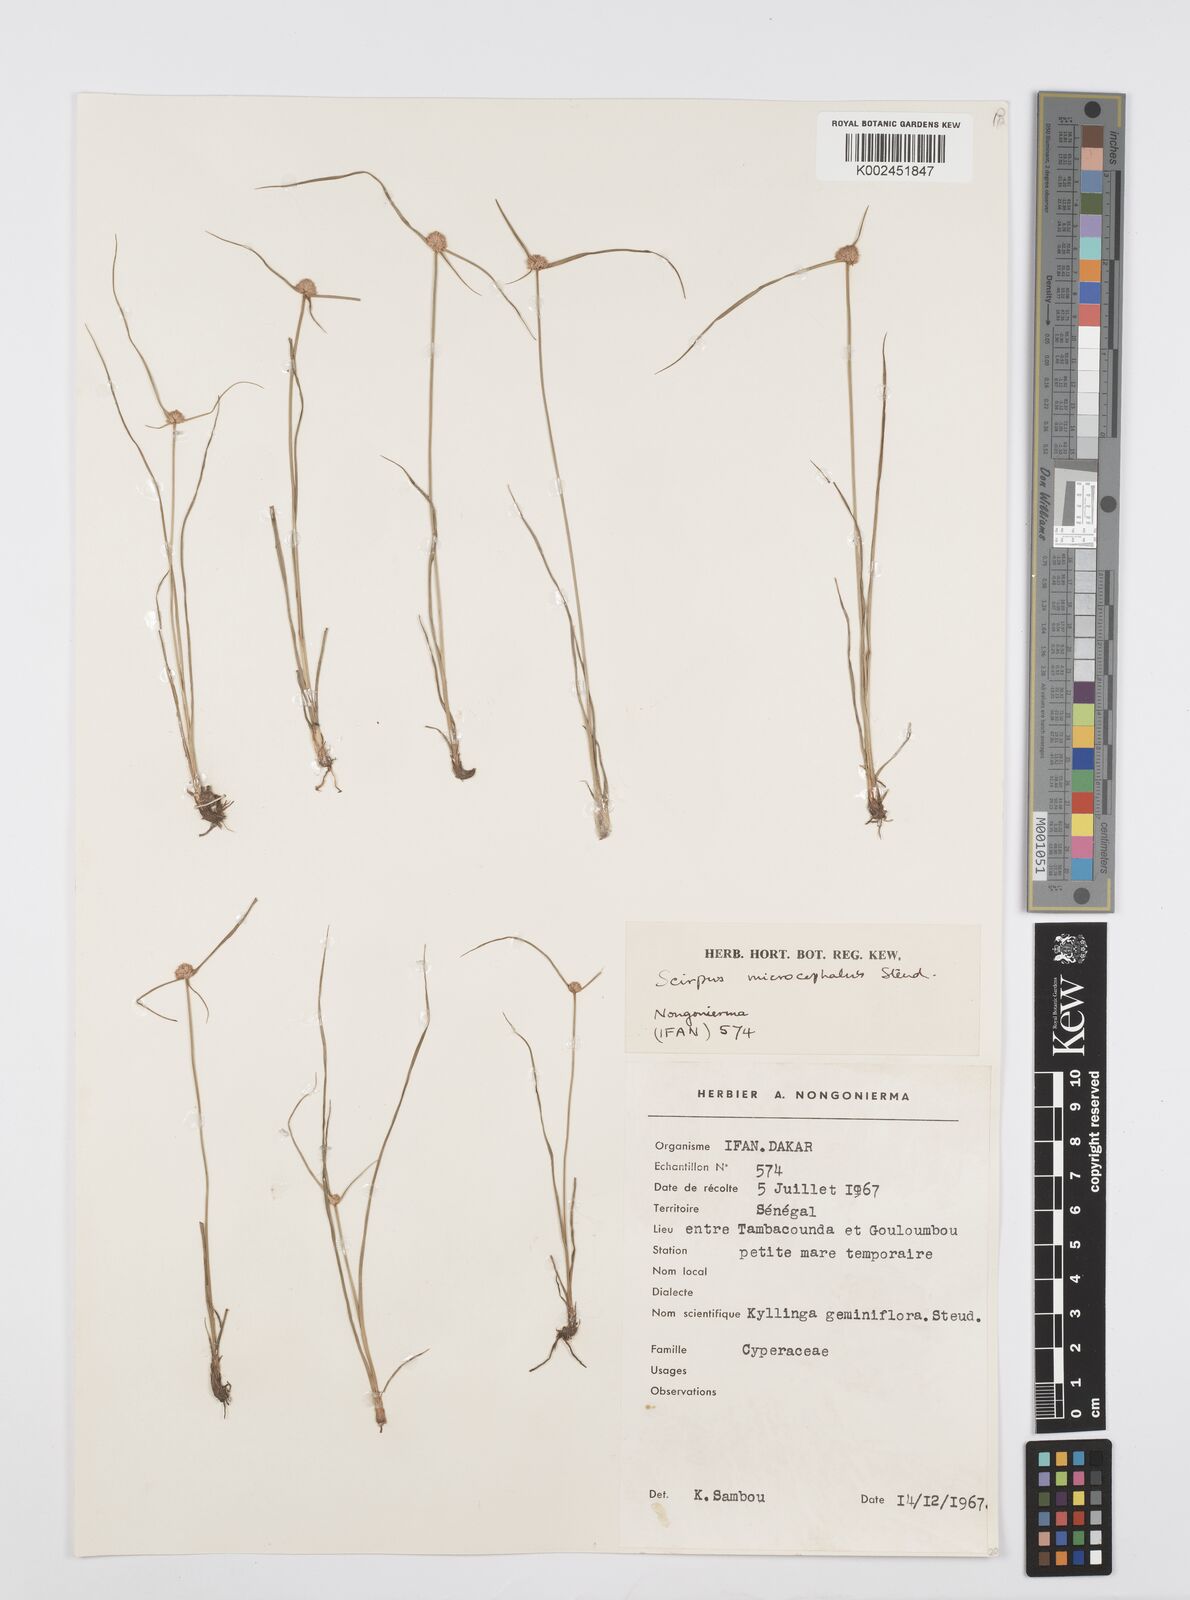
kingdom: Plantae
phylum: Tracheophyta
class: Liliopsida
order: Poales
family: Cyperaceae
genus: Cyperus
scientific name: Cyperus microcephalus
